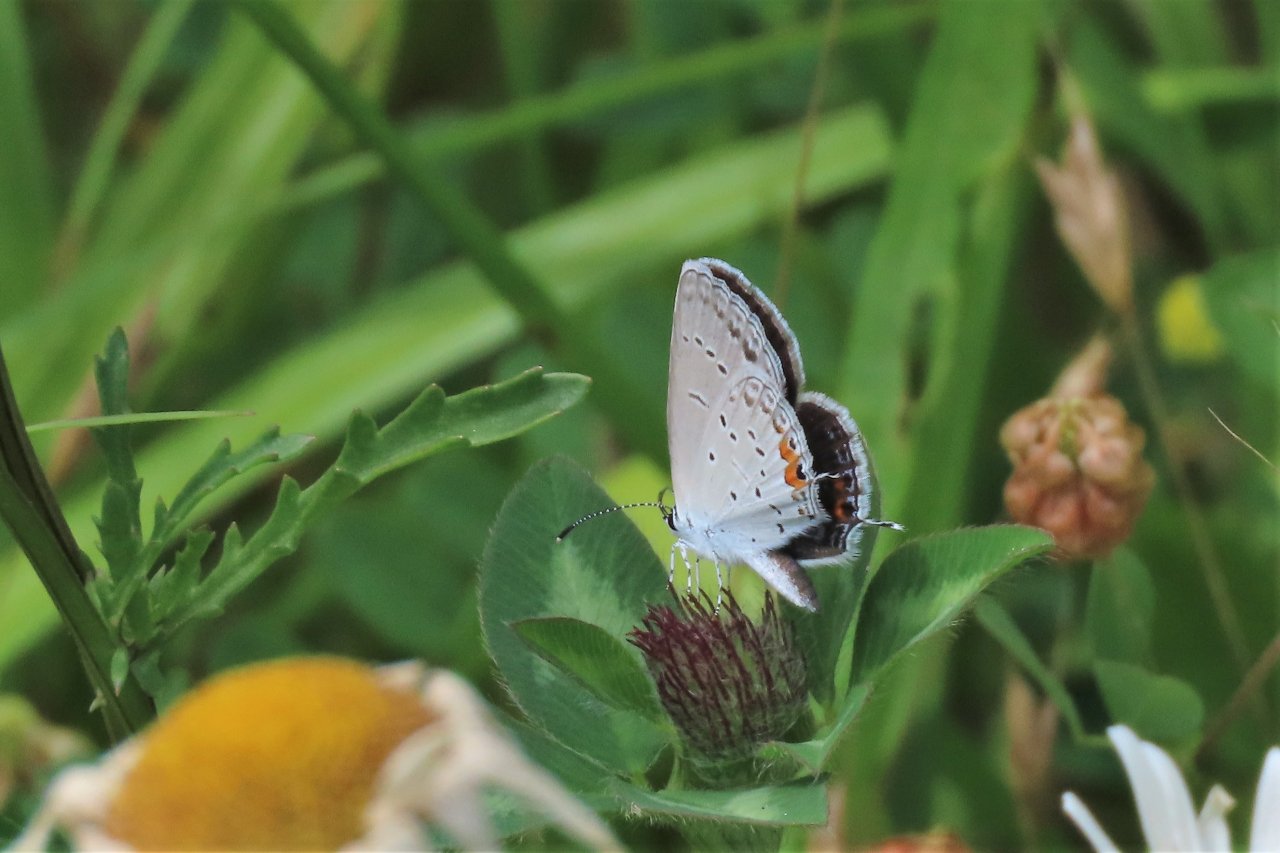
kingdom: Animalia
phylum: Arthropoda
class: Insecta
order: Lepidoptera
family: Lycaenidae
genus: Elkalyce
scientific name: Elkalyce comyntas
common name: Eastern Tailed-Blue
